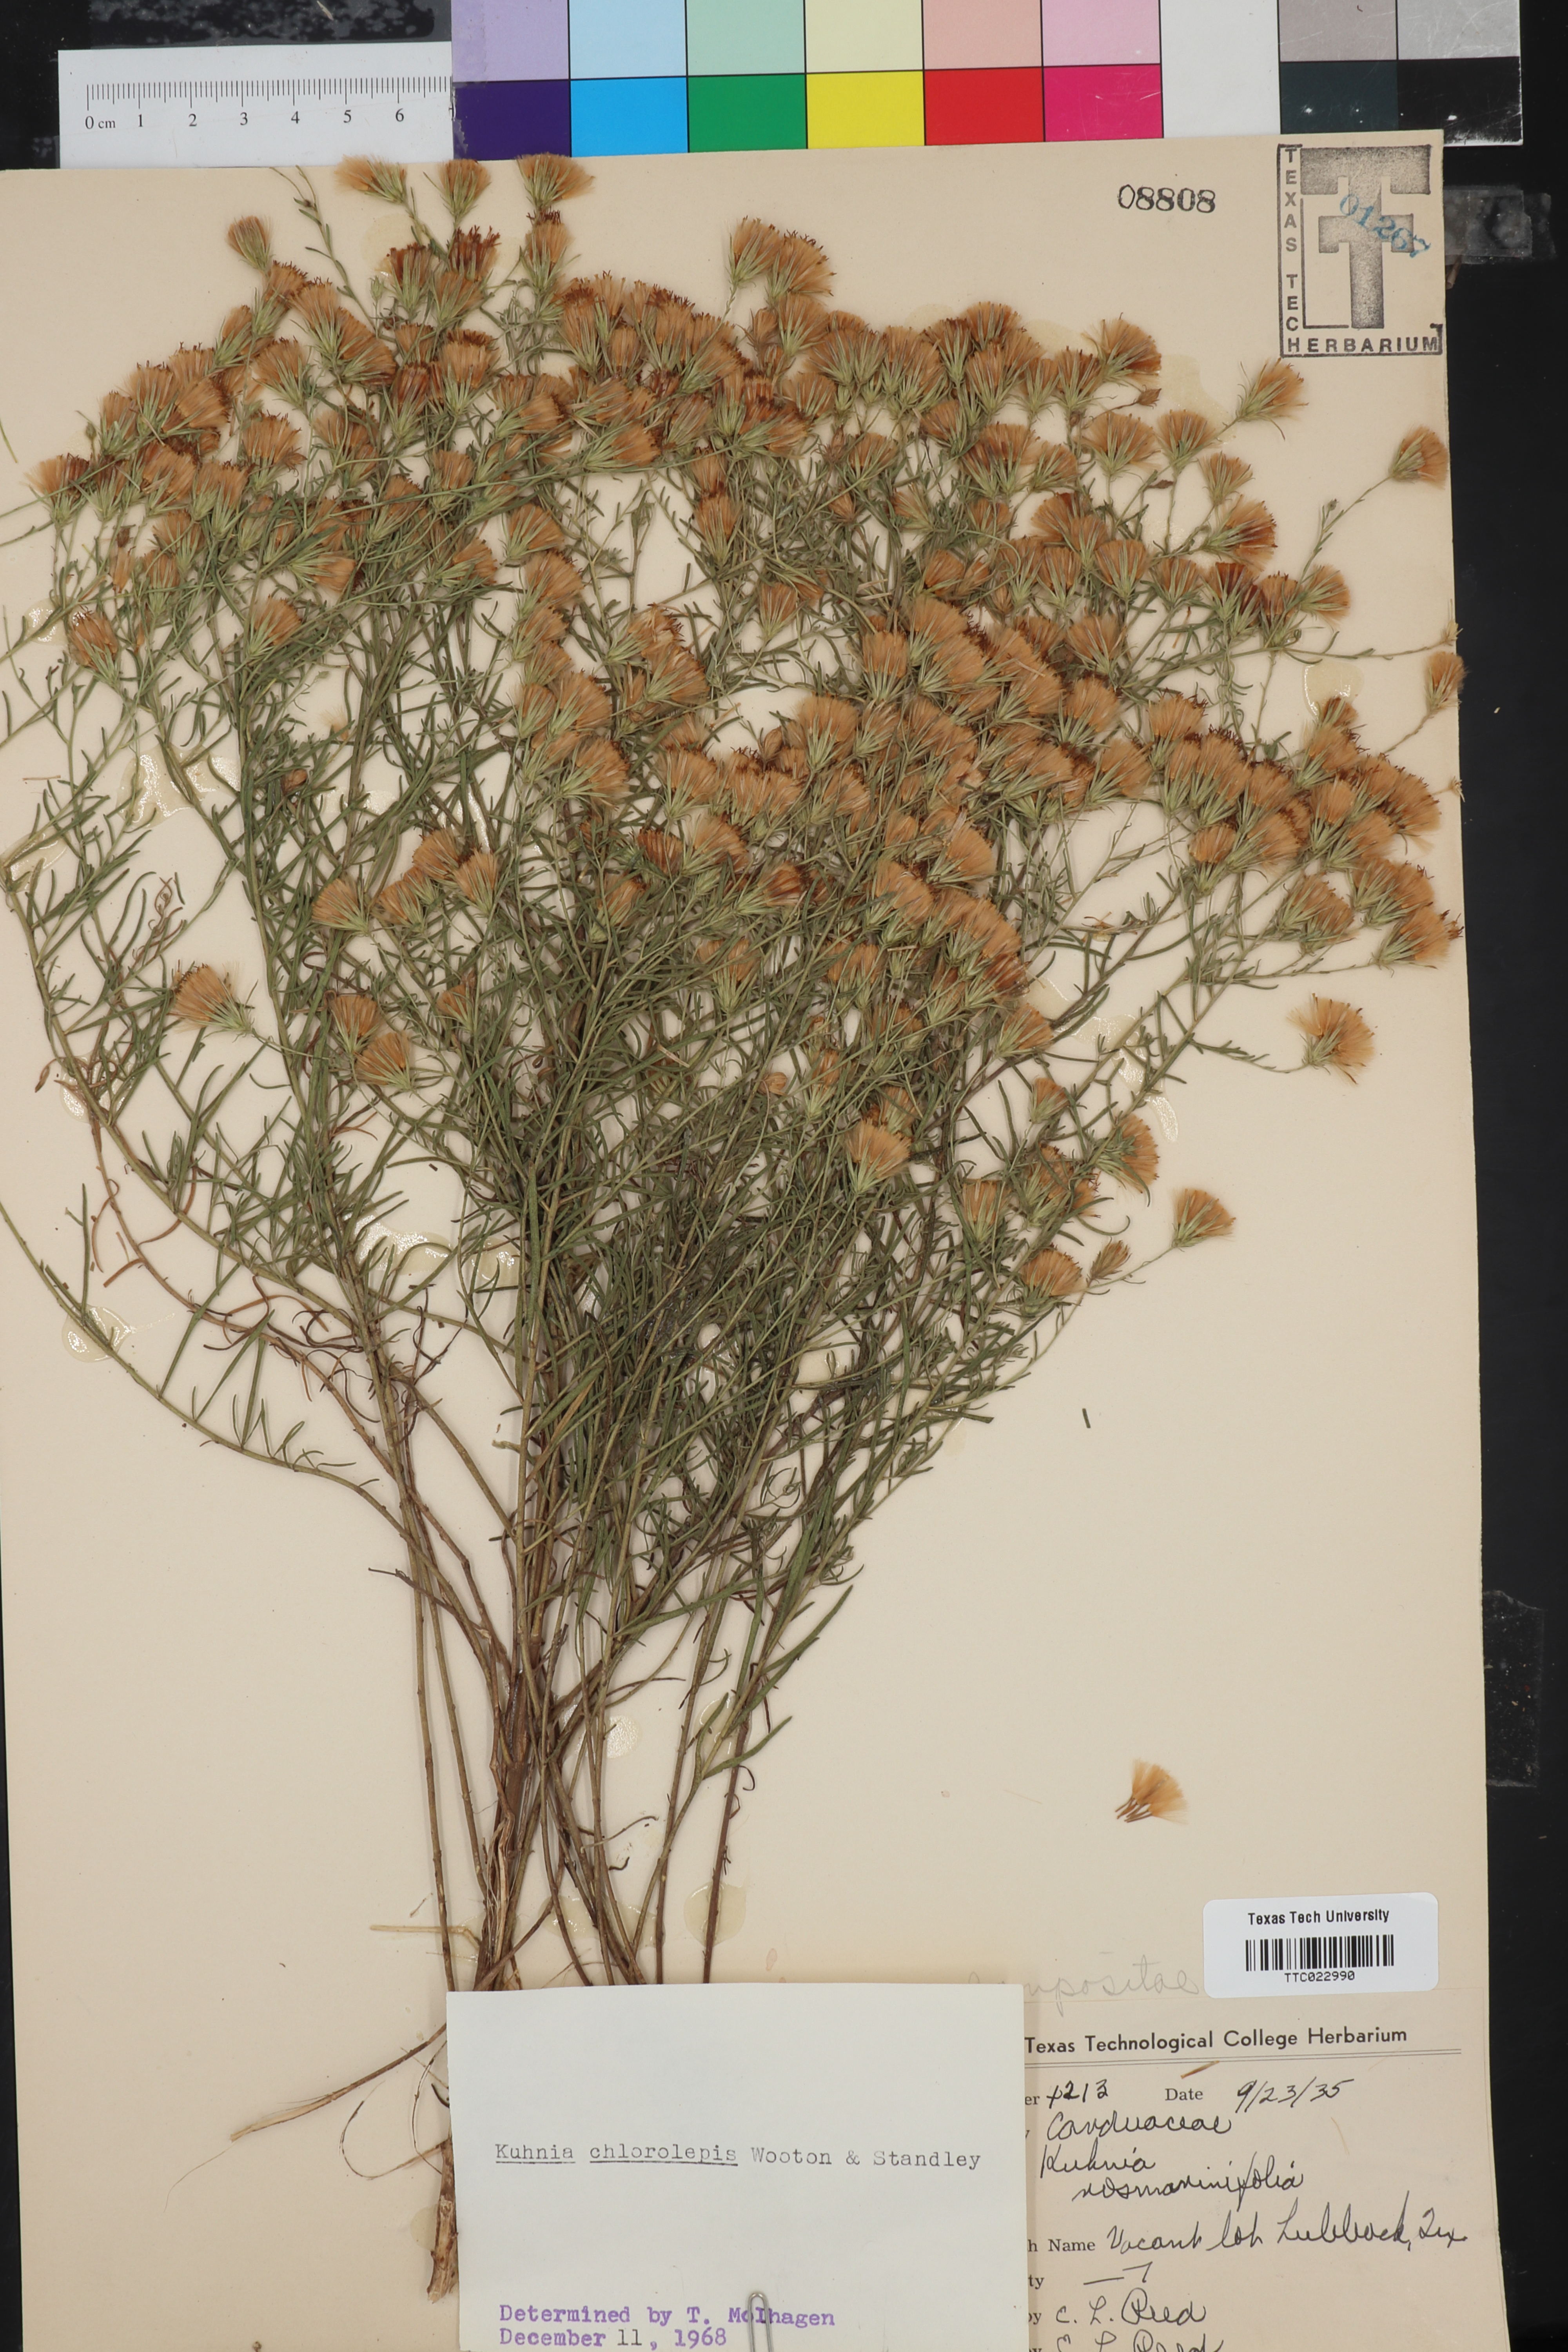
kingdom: Plantae
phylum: Tracheophyta
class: Magnoliopsida
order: Asterales
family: Asteraceae
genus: Brickellia
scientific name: Brickellia leptophylla
